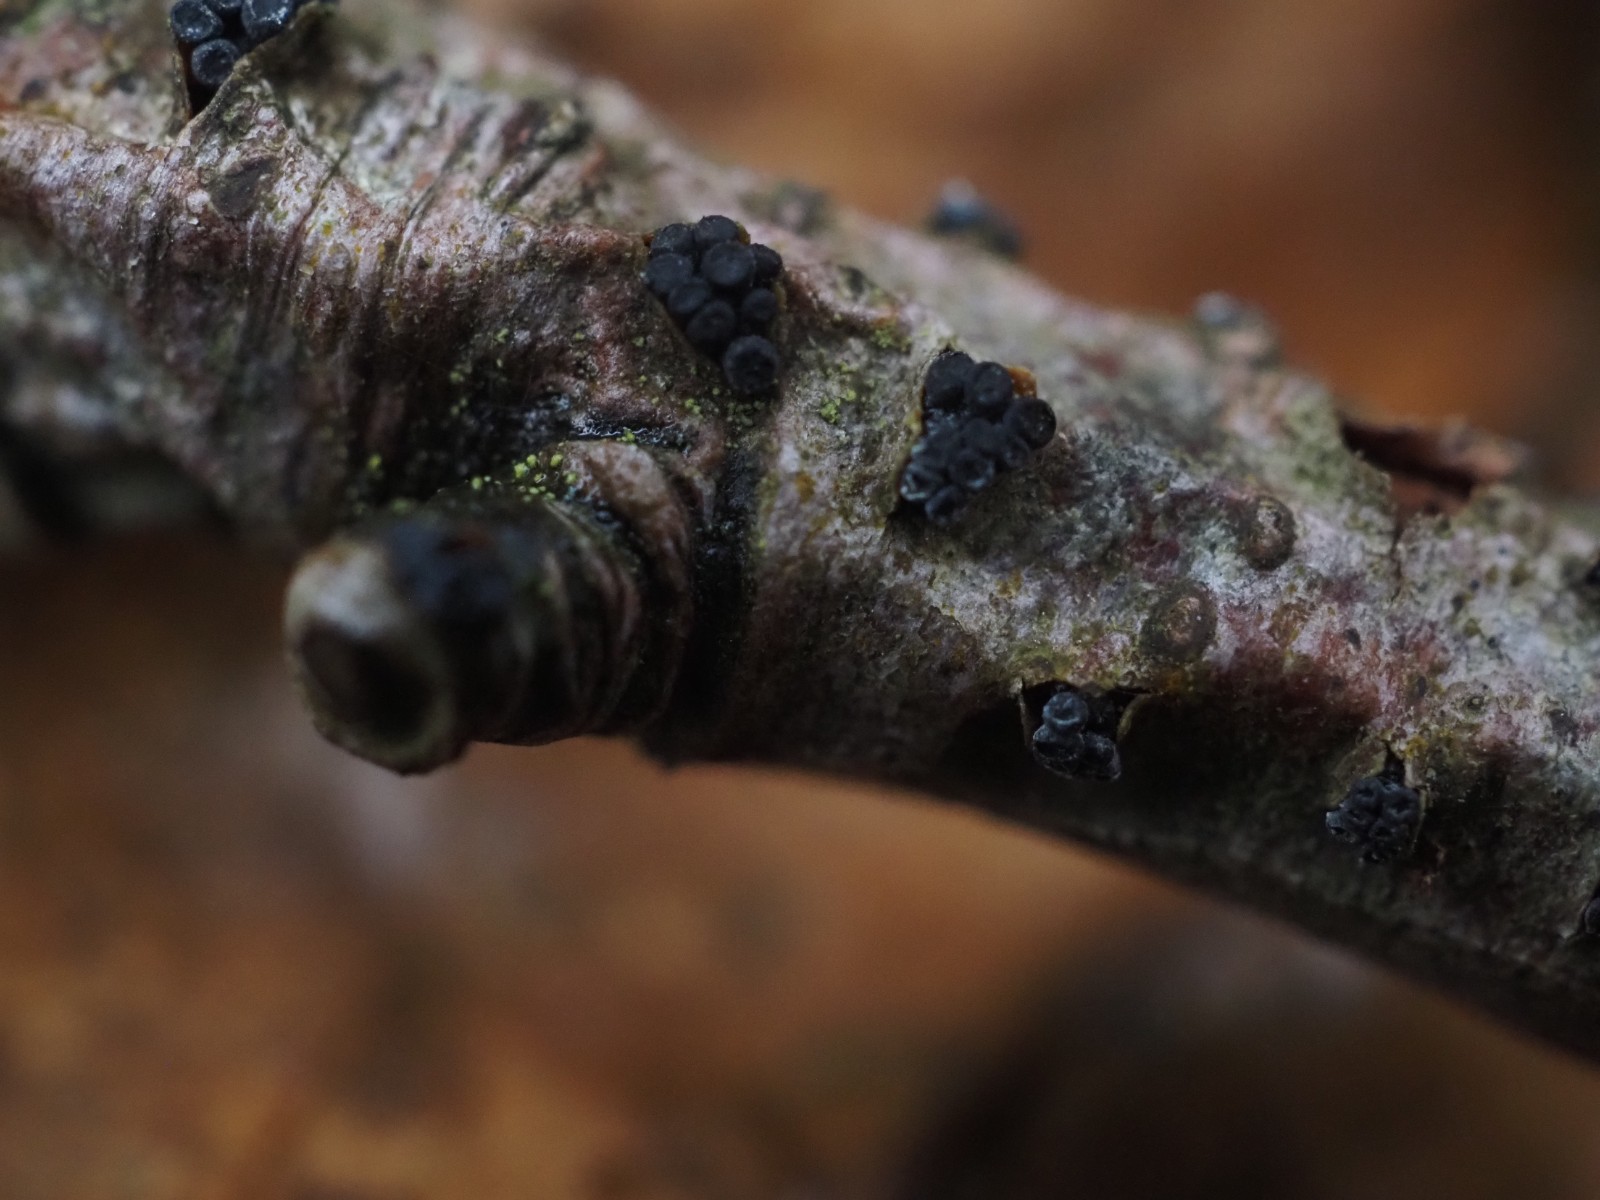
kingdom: Fungi
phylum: Ascomycota
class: Leotiomycetes
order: Leotiales
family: Tympanidaceae
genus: Tympanis
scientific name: Tympanis alnea
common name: almindelig knippeskive
